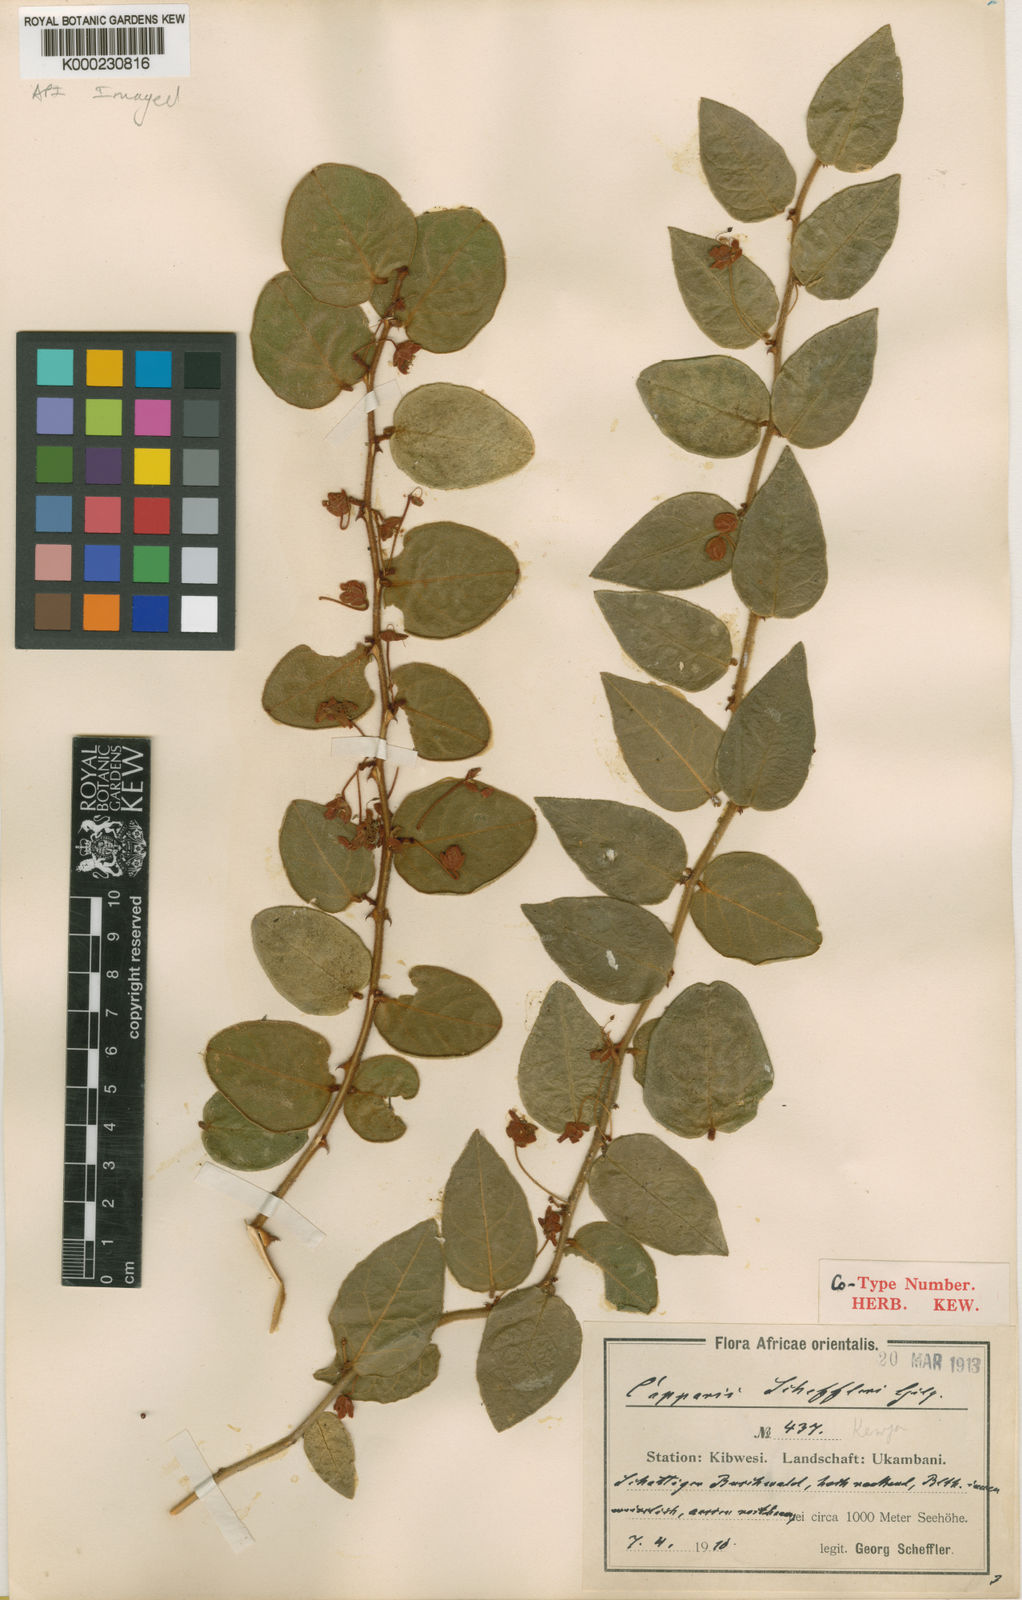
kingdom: Plantae
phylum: Tracheophyta
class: Magnoliopsida
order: Brassicales
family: Capparaceae
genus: Capparis
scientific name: Capparis fascicularis
